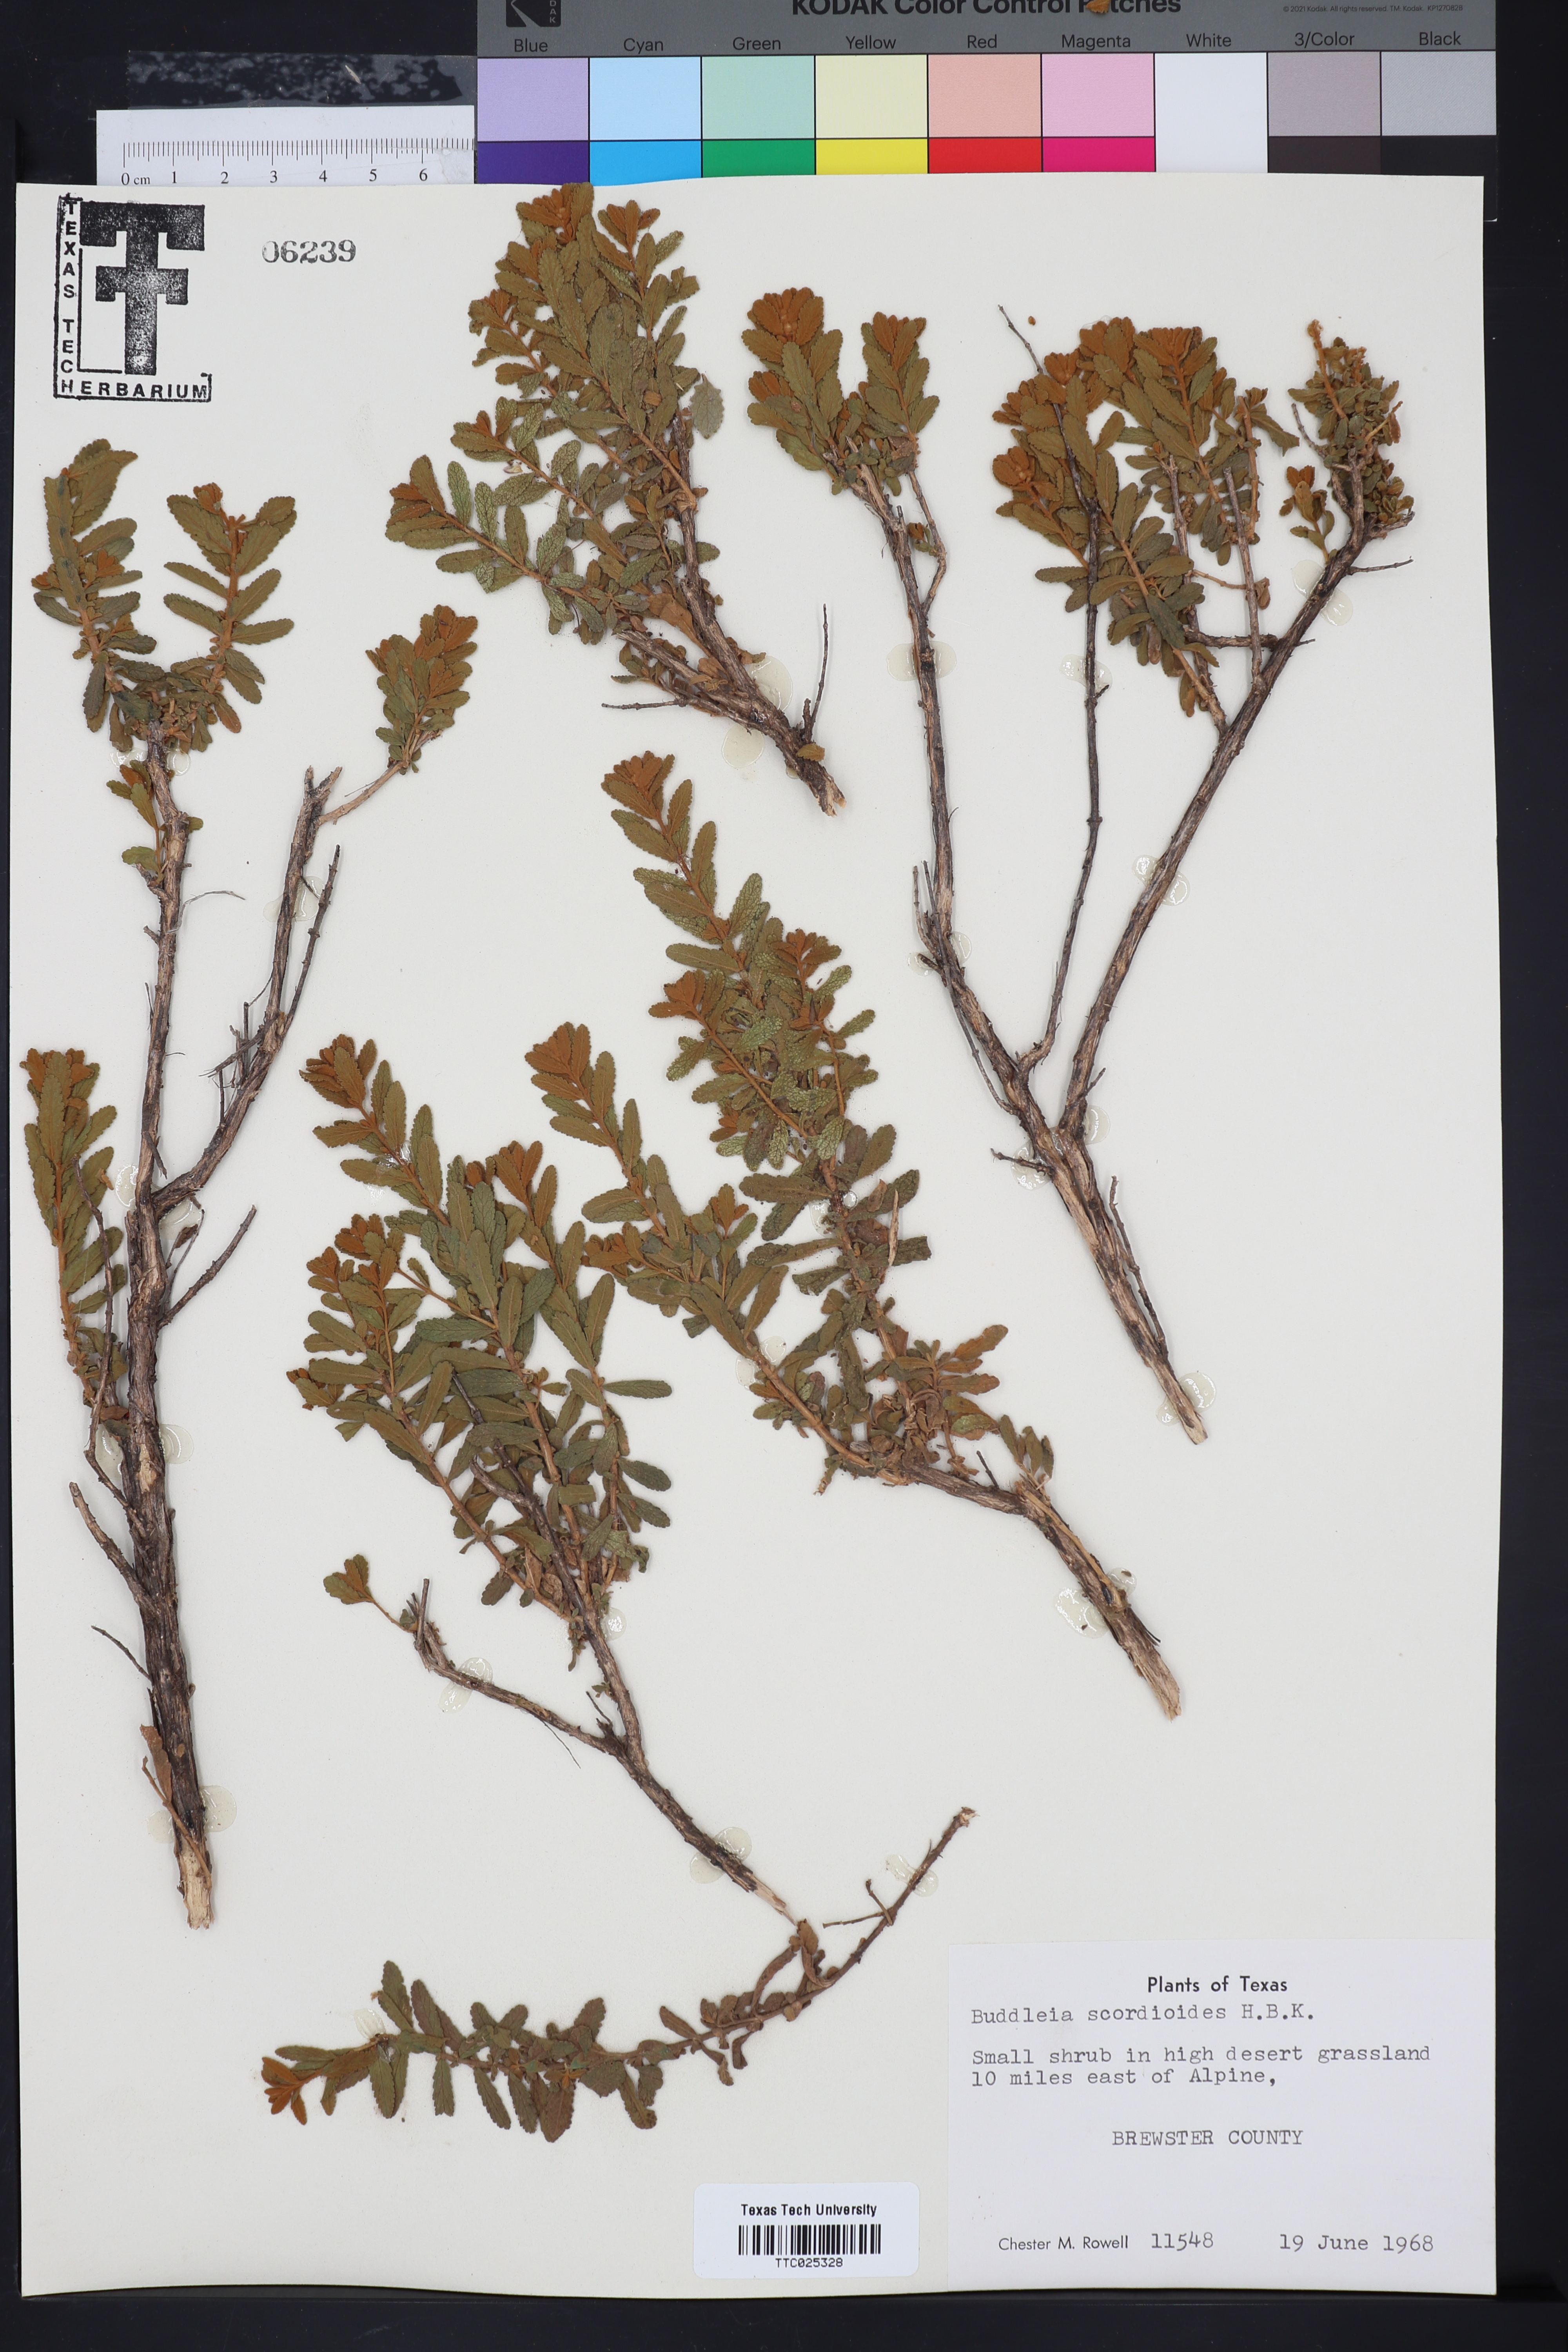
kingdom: Plantae
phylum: Tracheophyta
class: Magnoliopsida
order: Lamiales
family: Scrophulariaceae
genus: Buddleja
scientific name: Buddleja
